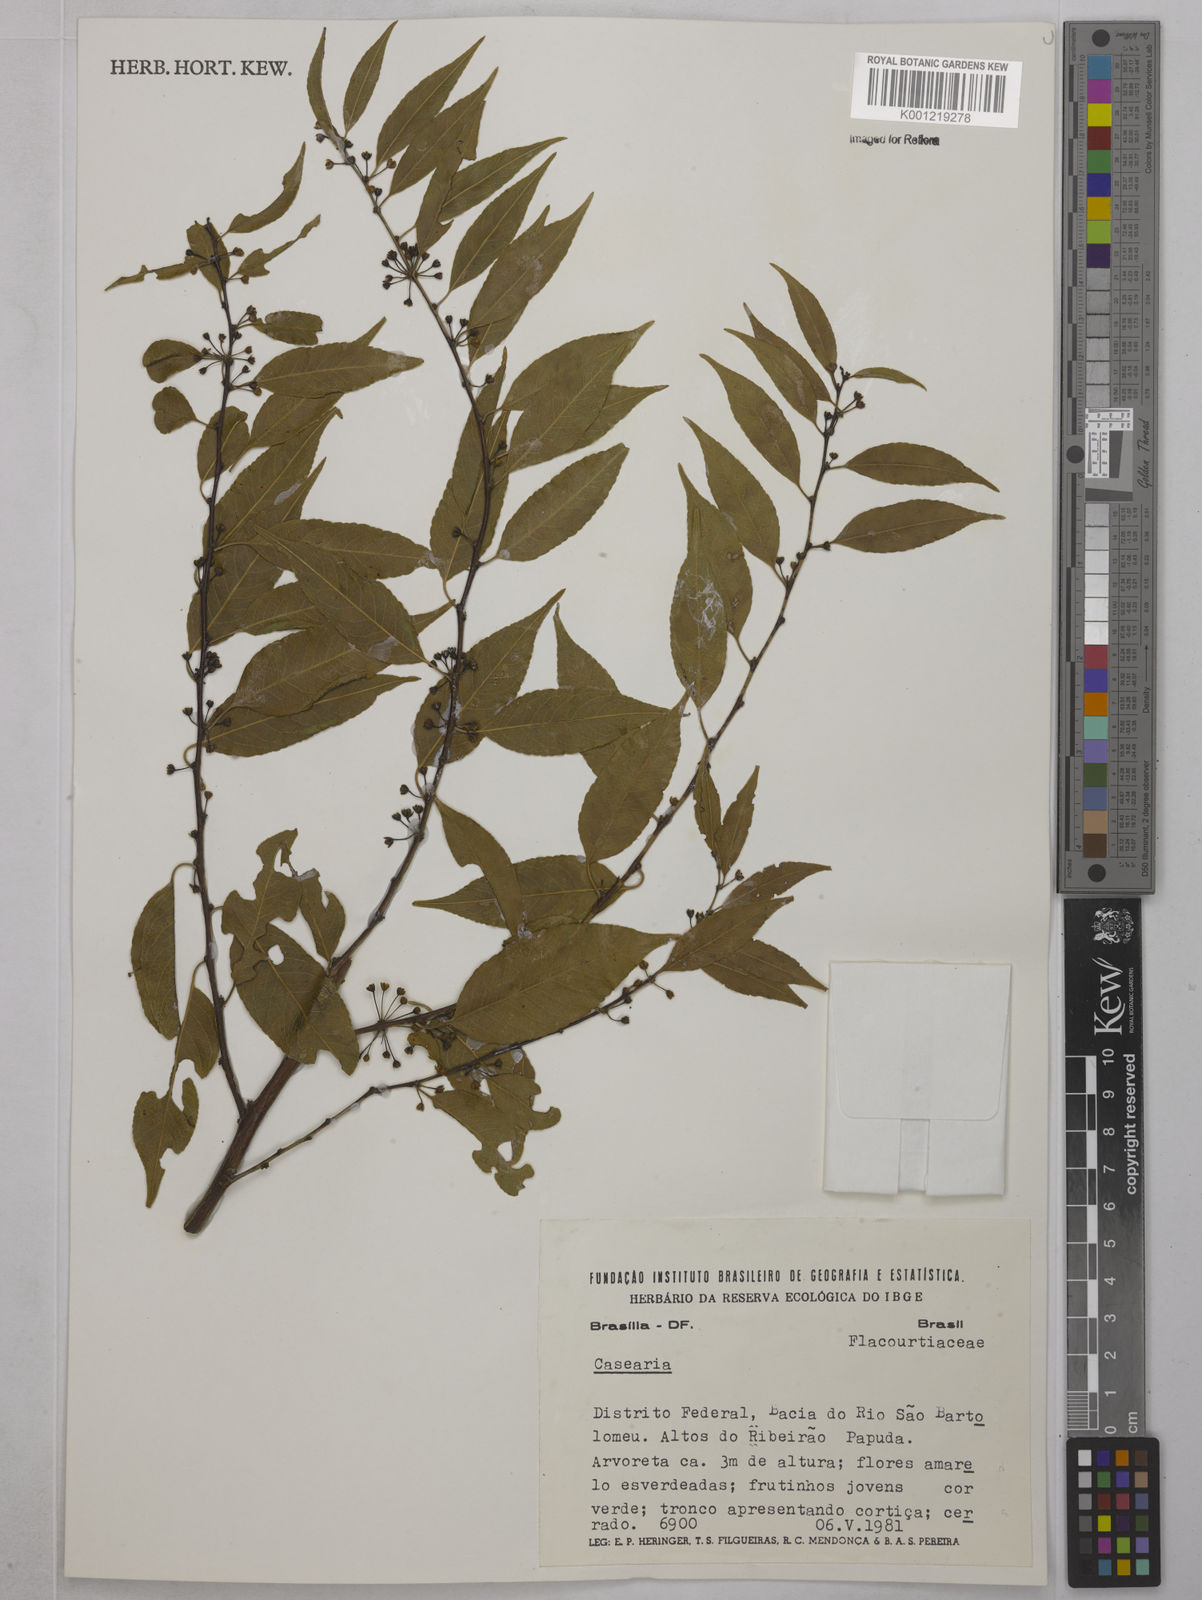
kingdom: Plantae
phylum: Tracheophyta
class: Magnoliopsida
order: Malpighiales
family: Salicaceae
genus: Casearia
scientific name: Casearia
